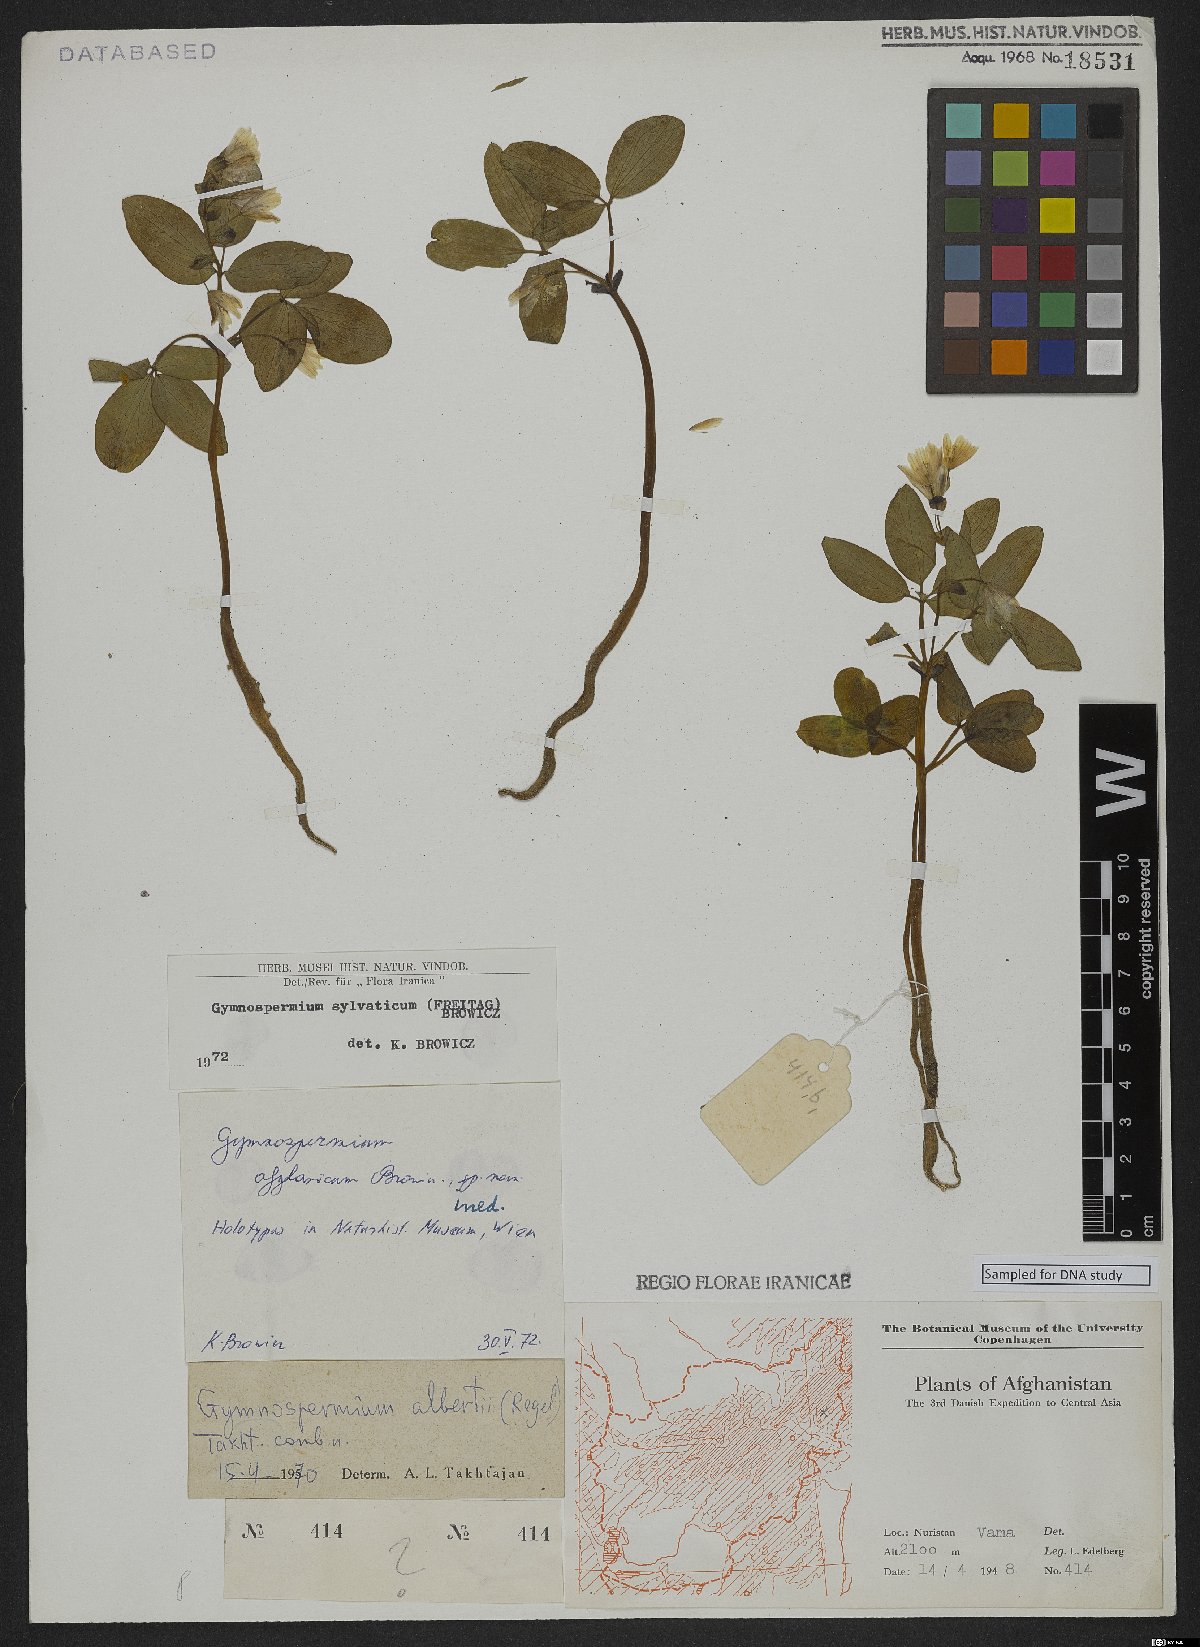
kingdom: Plantae
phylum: Tracheophyta
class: Magnoliopsida
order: Ranunculales
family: Berberidaceae
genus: Gymnospermium
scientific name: Gymnospermium silvaticum
